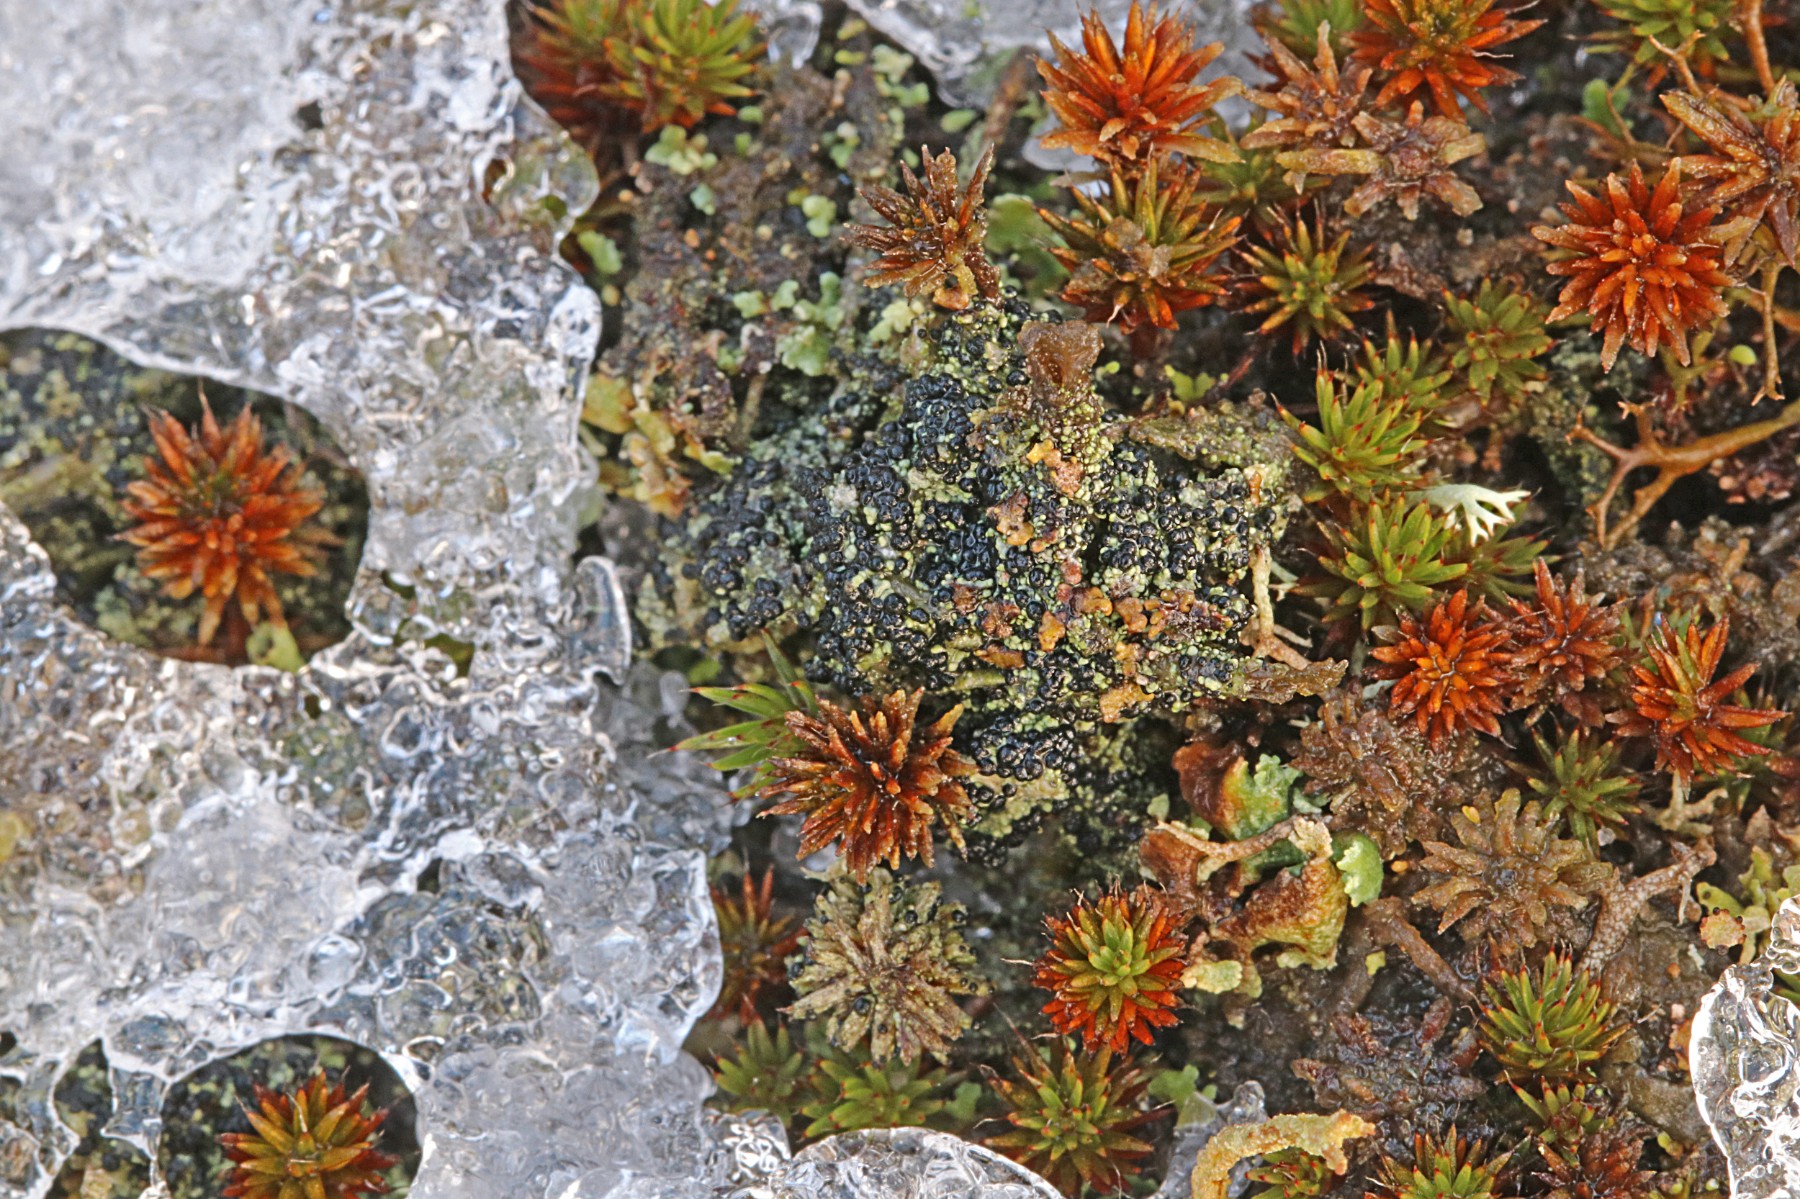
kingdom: Fungi
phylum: Ascomycota
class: Lecanoromycetes
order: Lecanorales
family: Byssolomataceae
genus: Micarea
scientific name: Micarea lignaria
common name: tørve-knaplav
